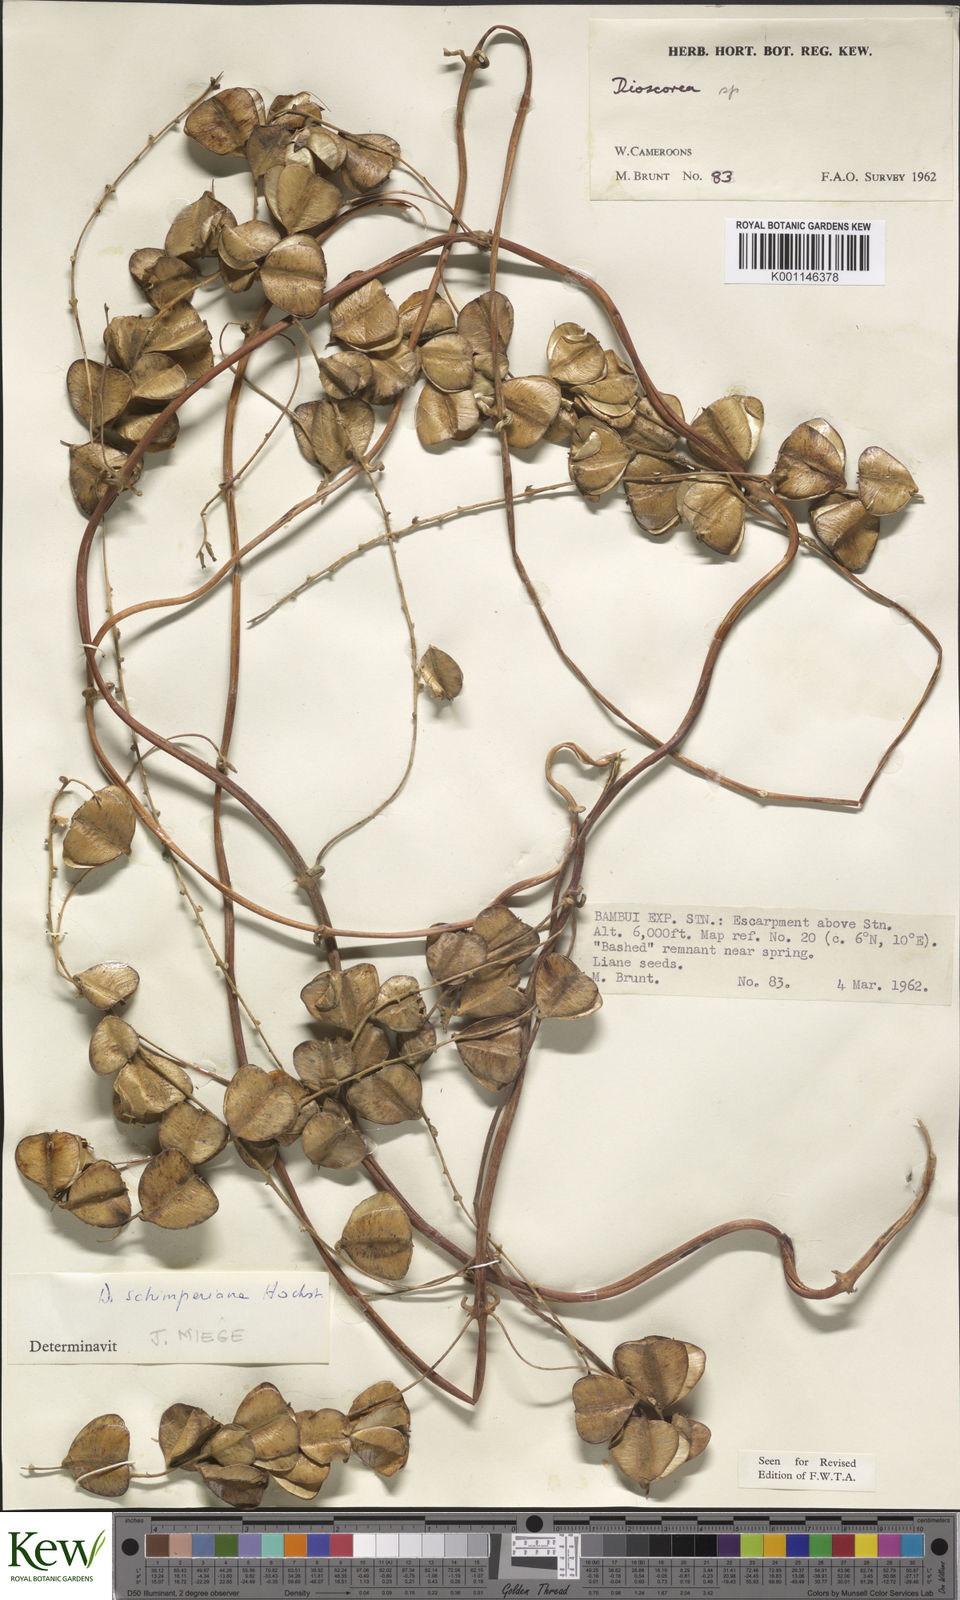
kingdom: Plantae
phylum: Tracheophyta
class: Liliopsida
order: Dioscoreales
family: Dioscoreaceae
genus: Dioscorea
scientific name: Dioscorea schimperiana
